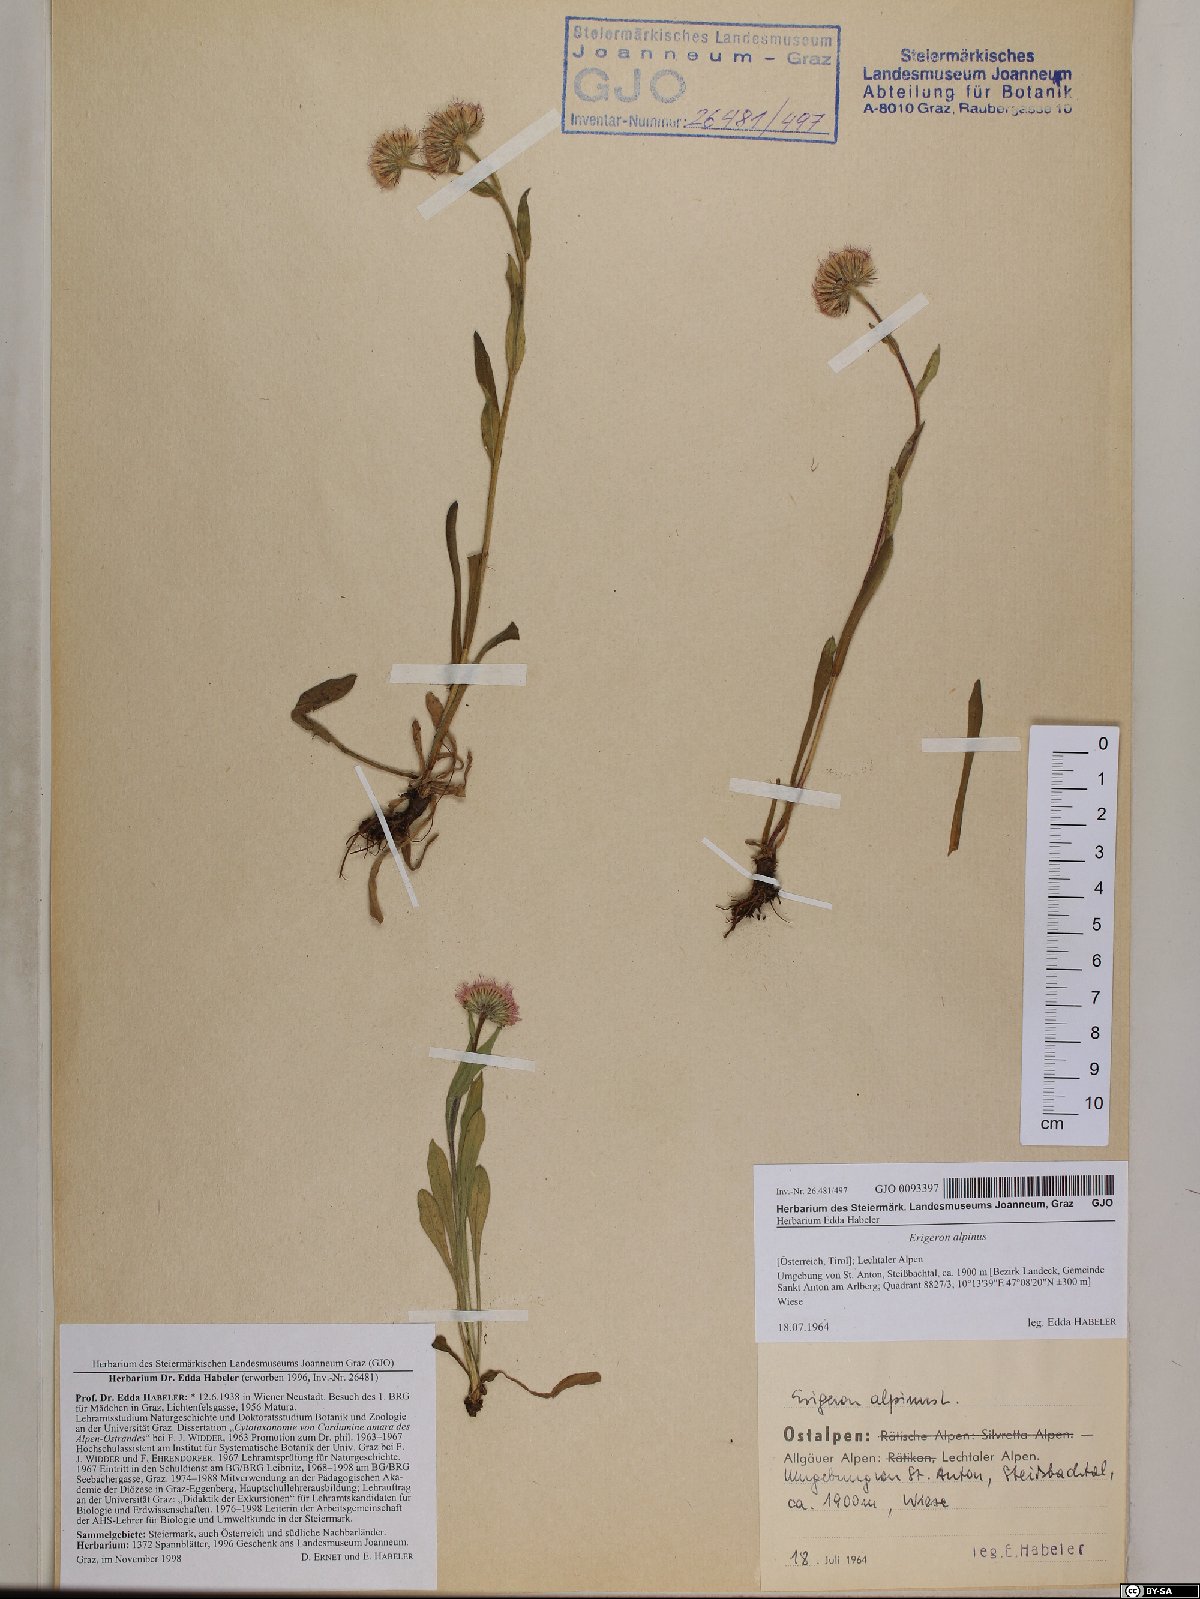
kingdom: Plantae
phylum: Tracheophyta
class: Magnoliopsida
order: Asterales
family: Asteraceae
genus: Erigeron
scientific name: Erigeron alpinus
